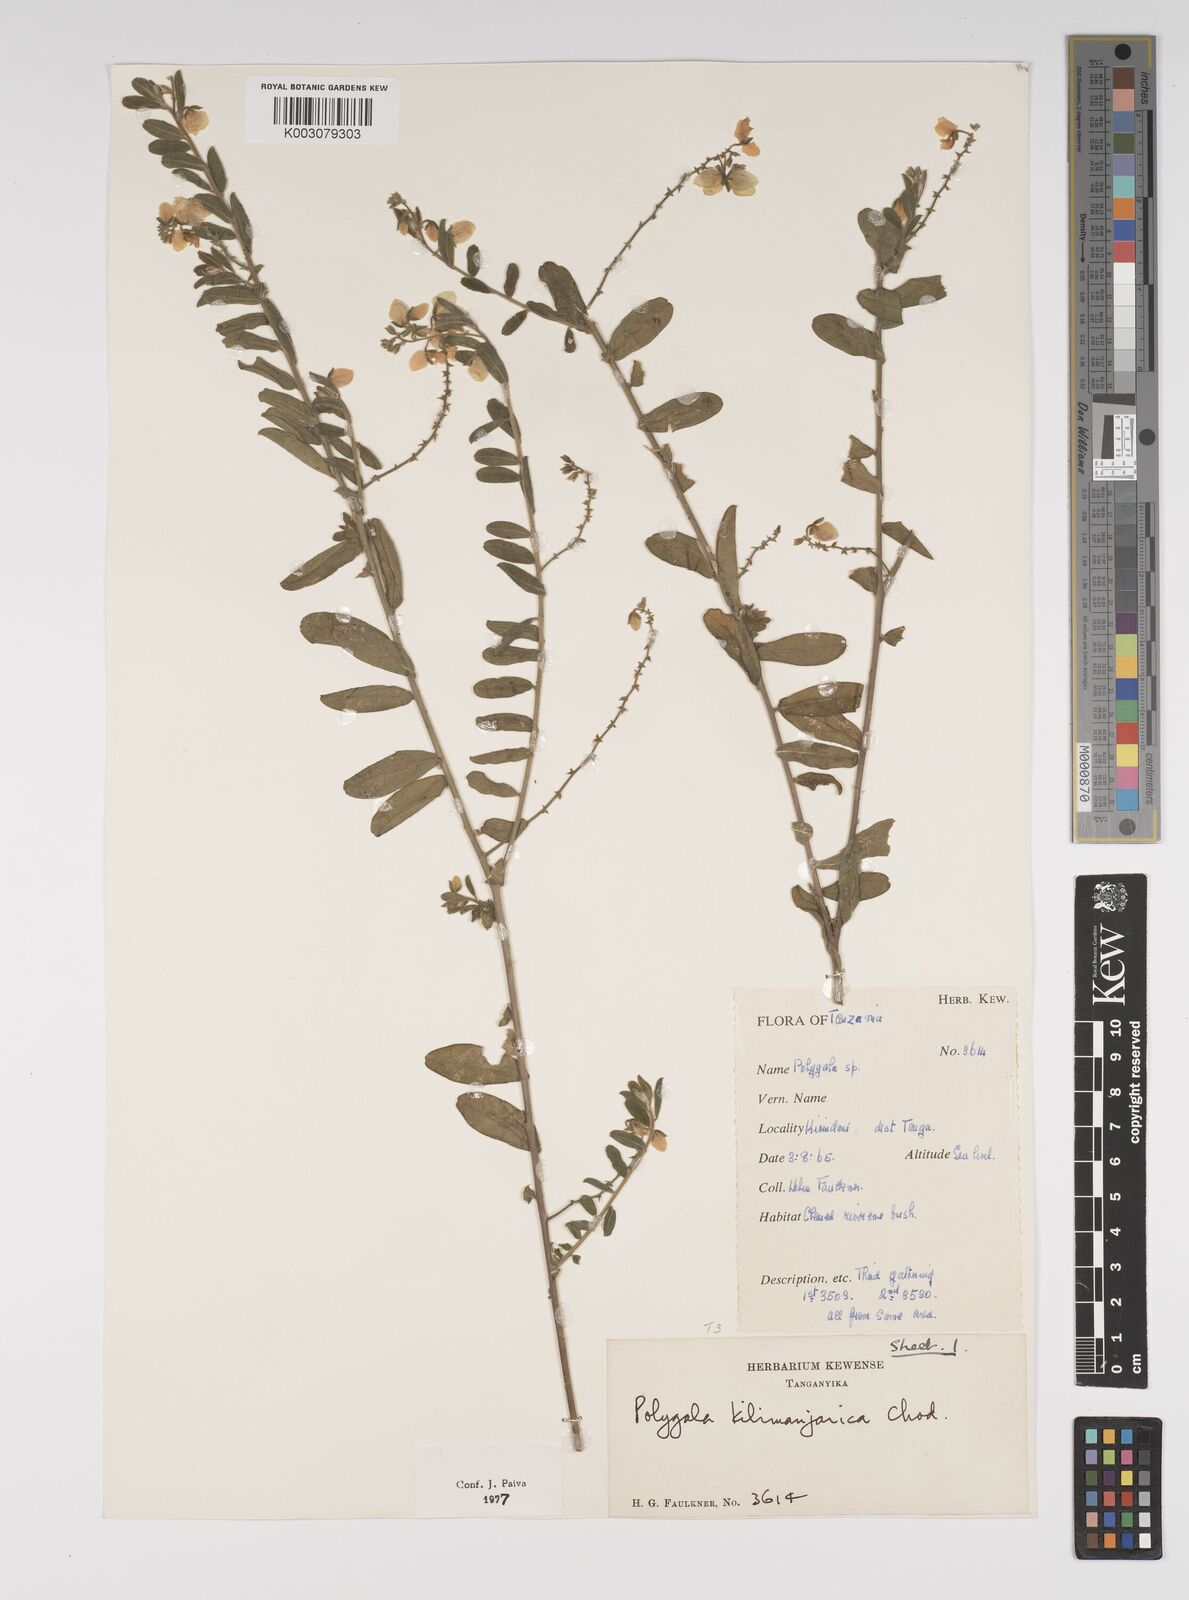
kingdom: Plantae
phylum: Tracheophyta
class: Magnoliopsida
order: Fabales
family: Polygalaceae
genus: Polygala
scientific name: Polygala kilimandjarica
